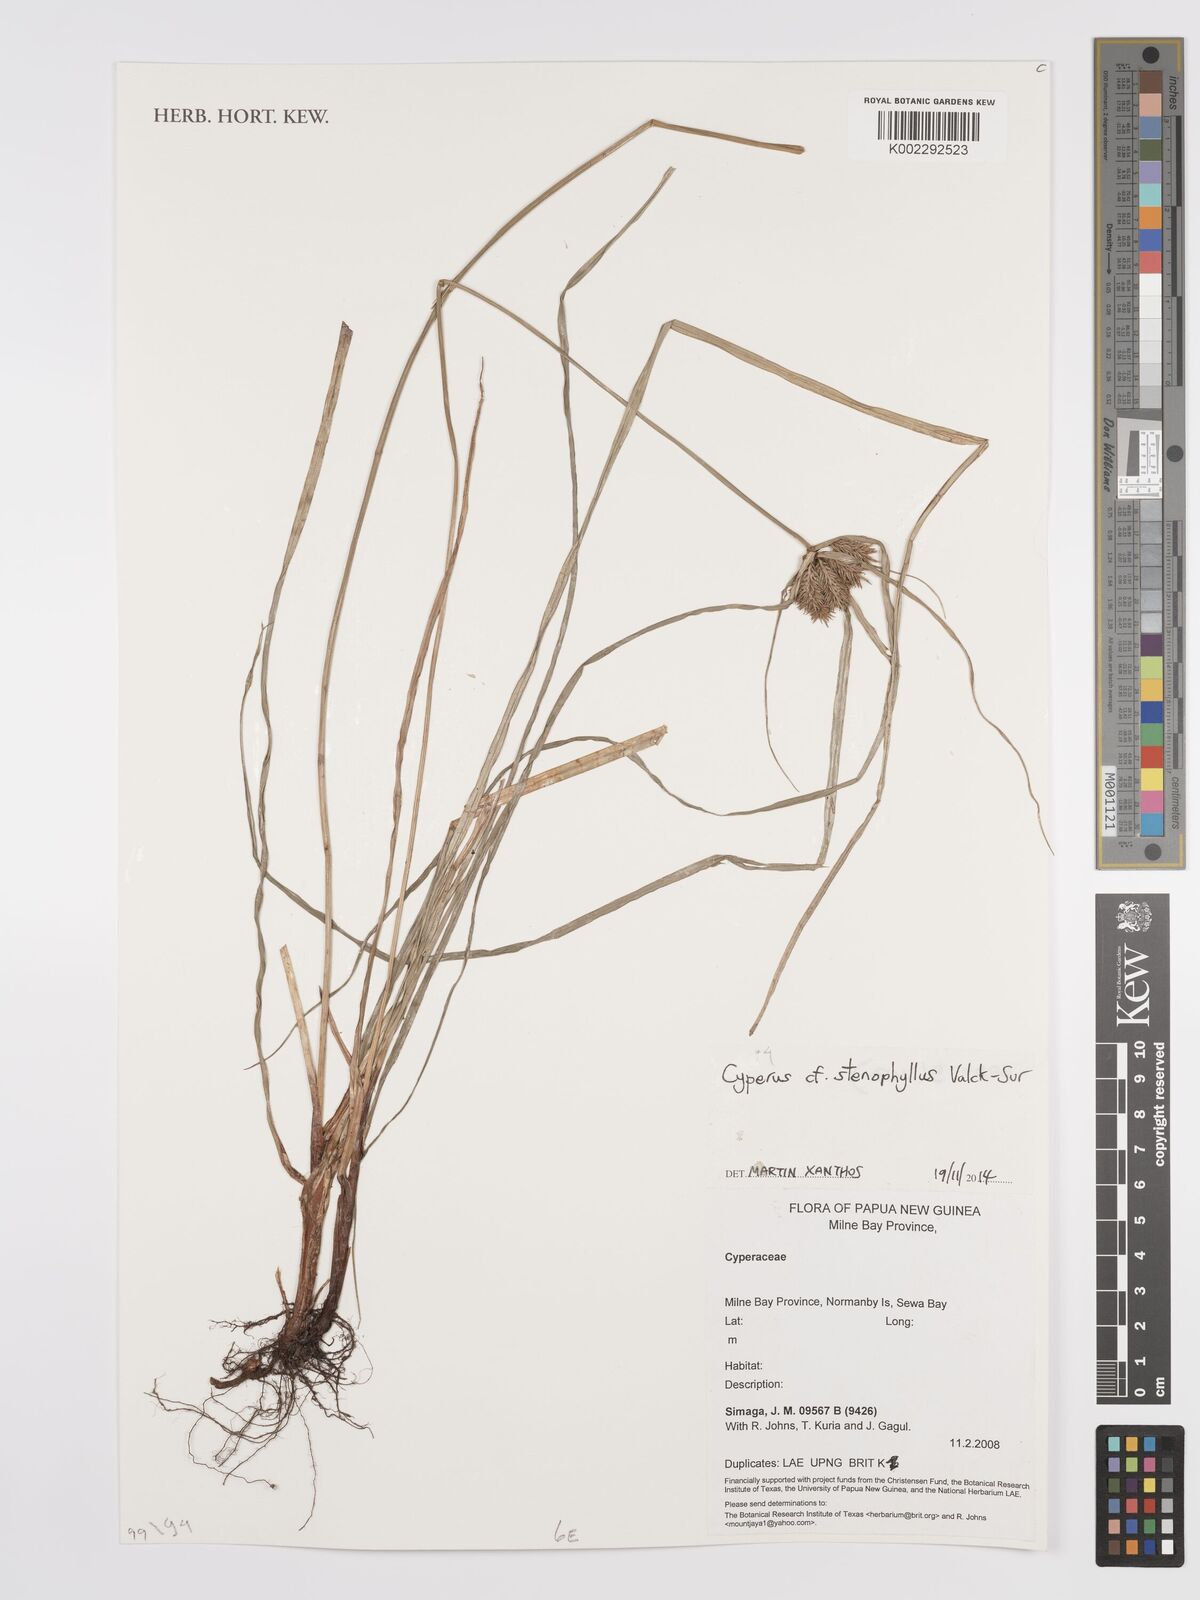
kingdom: Plantae
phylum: Tracheophyta
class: Liliopsida
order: Poales
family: Cyperaceae
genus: Cyperus
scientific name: Cyperus stenophyllus
